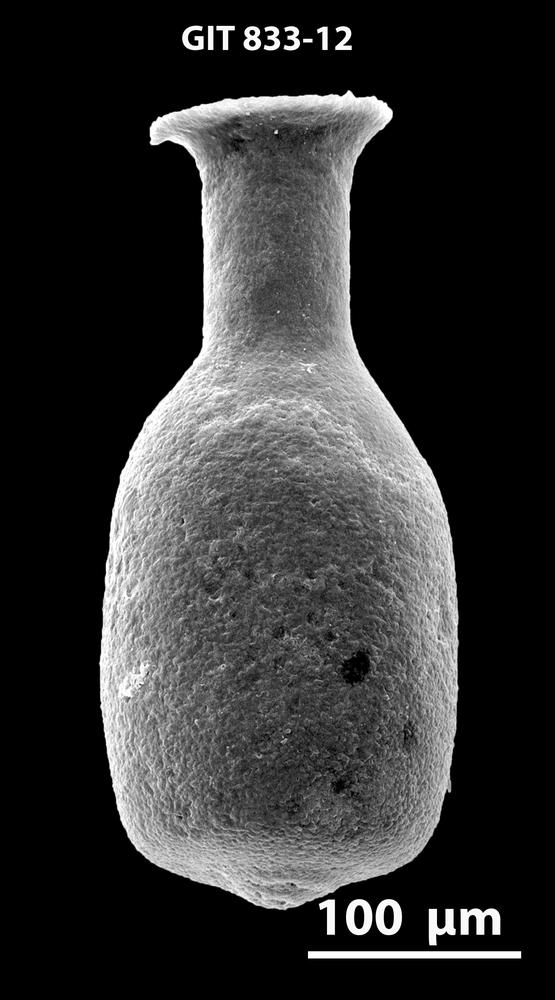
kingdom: Animalia
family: Lagenochitinidae
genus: Lagenochitina
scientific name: Lagenochitina
